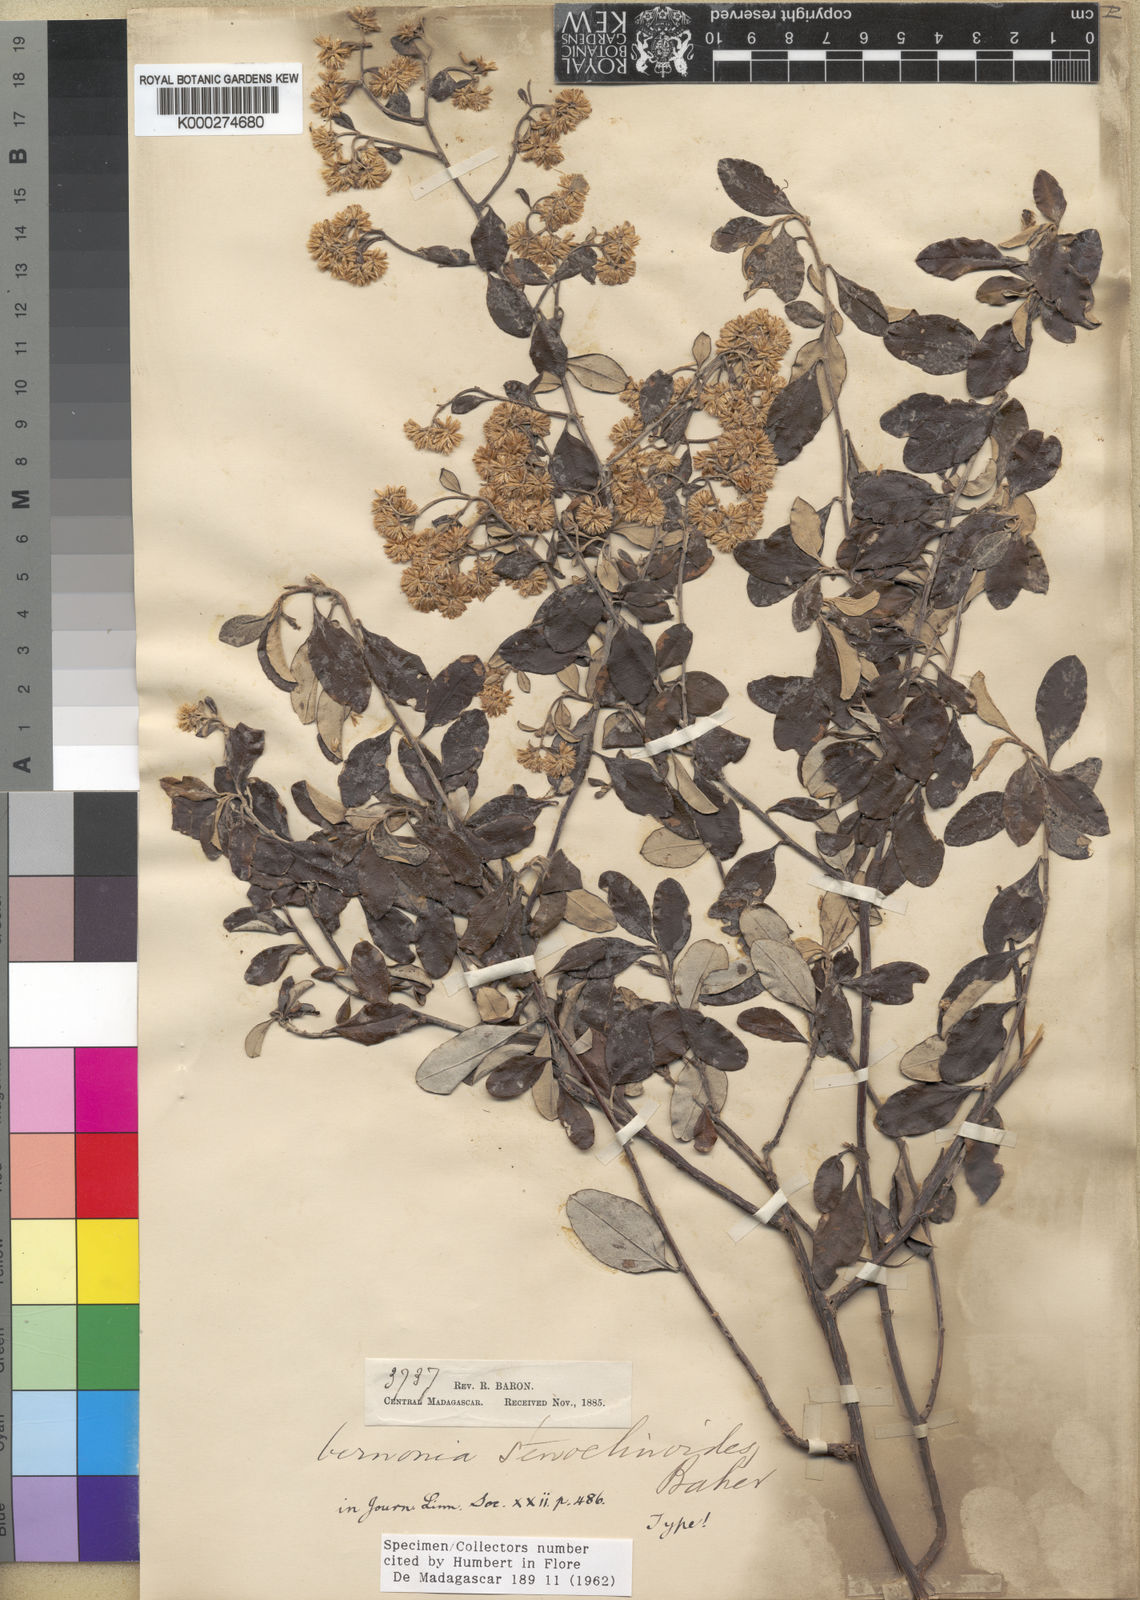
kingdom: Plantae
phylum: Tracheophyta
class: Magnoliopsida
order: Asterales
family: Asteraceae
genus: Helichrysum
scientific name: Helichrysum stenoclinoides
